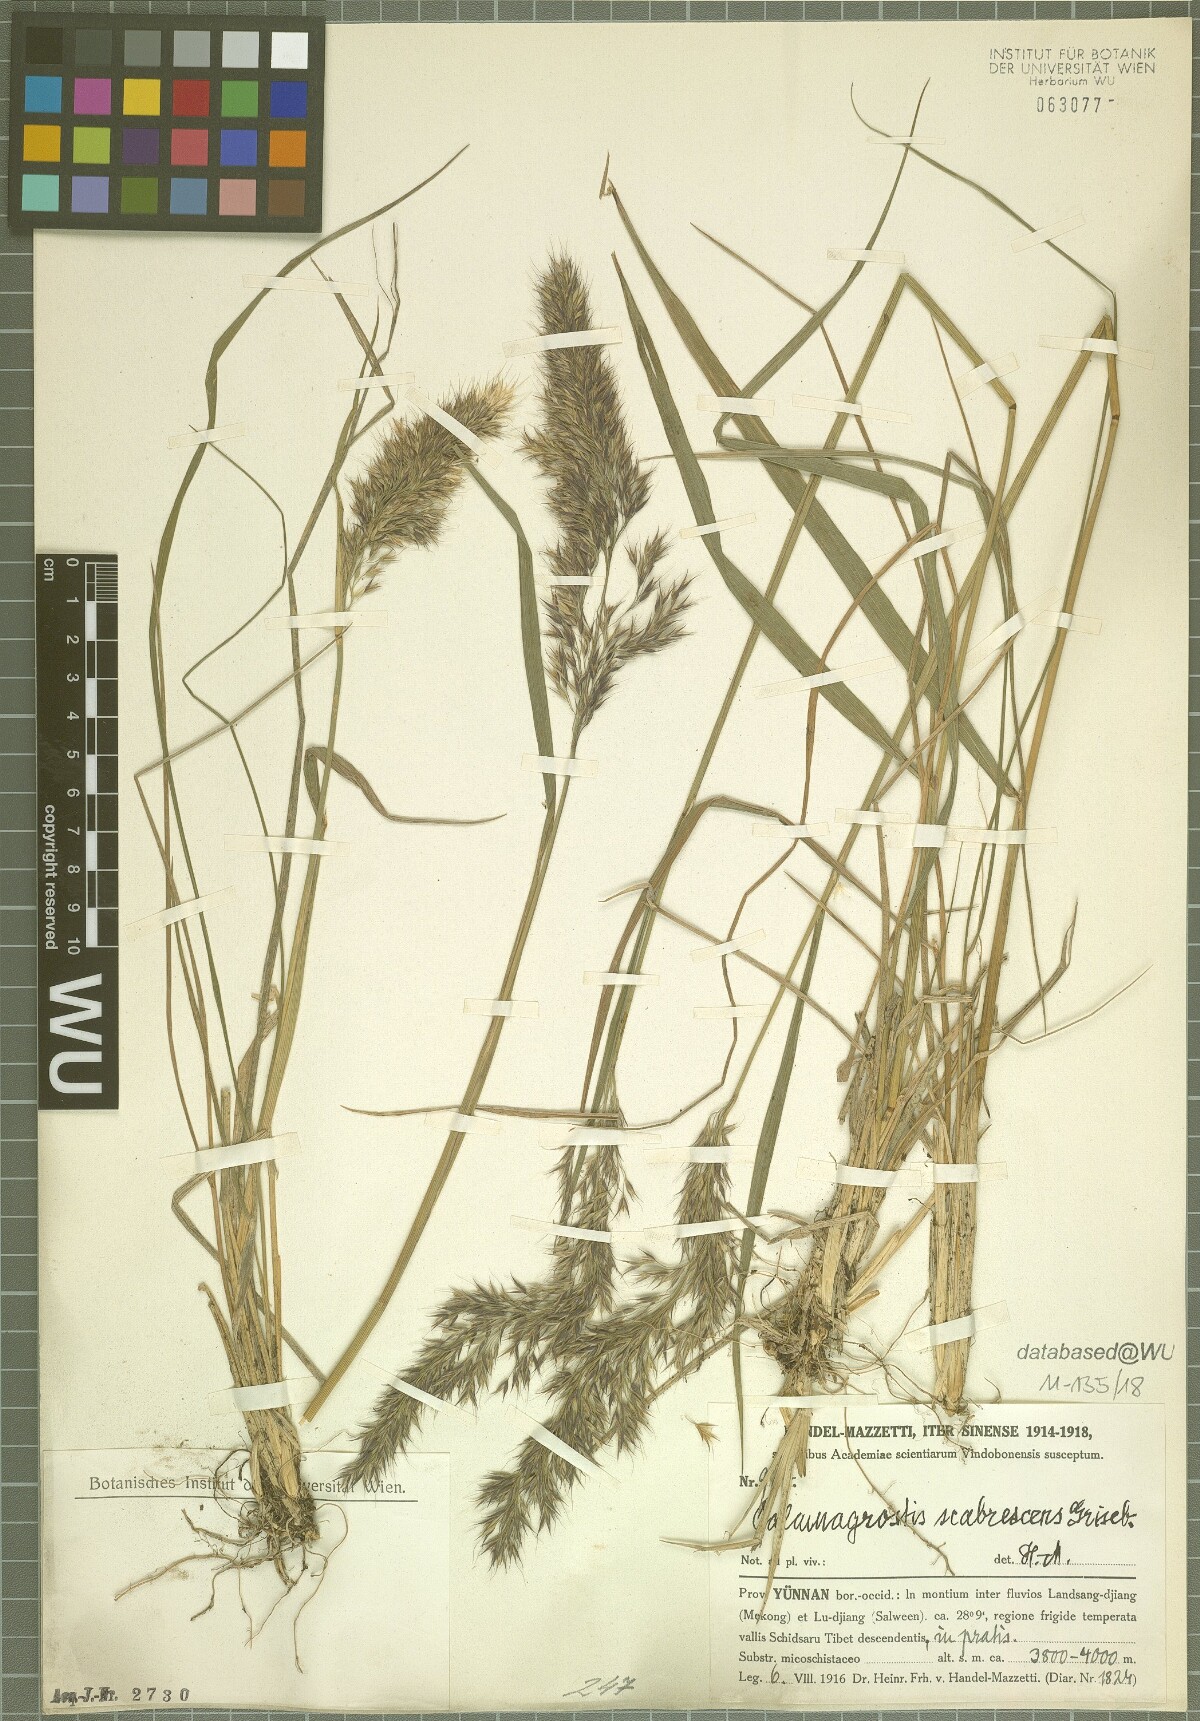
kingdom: Plantae
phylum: Tracheophyta
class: Liliopsida
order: Poales
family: Poaceae
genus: Calamagrostis
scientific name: Calamagrostis scabrescens
